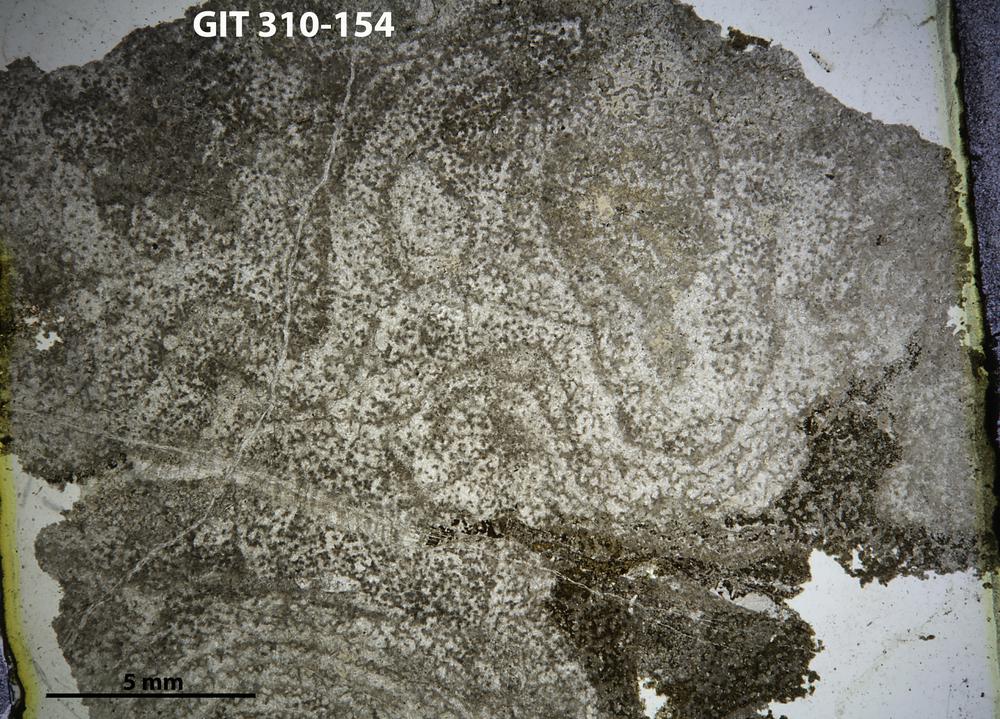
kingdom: Animalia
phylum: Porifera
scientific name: Porifera
